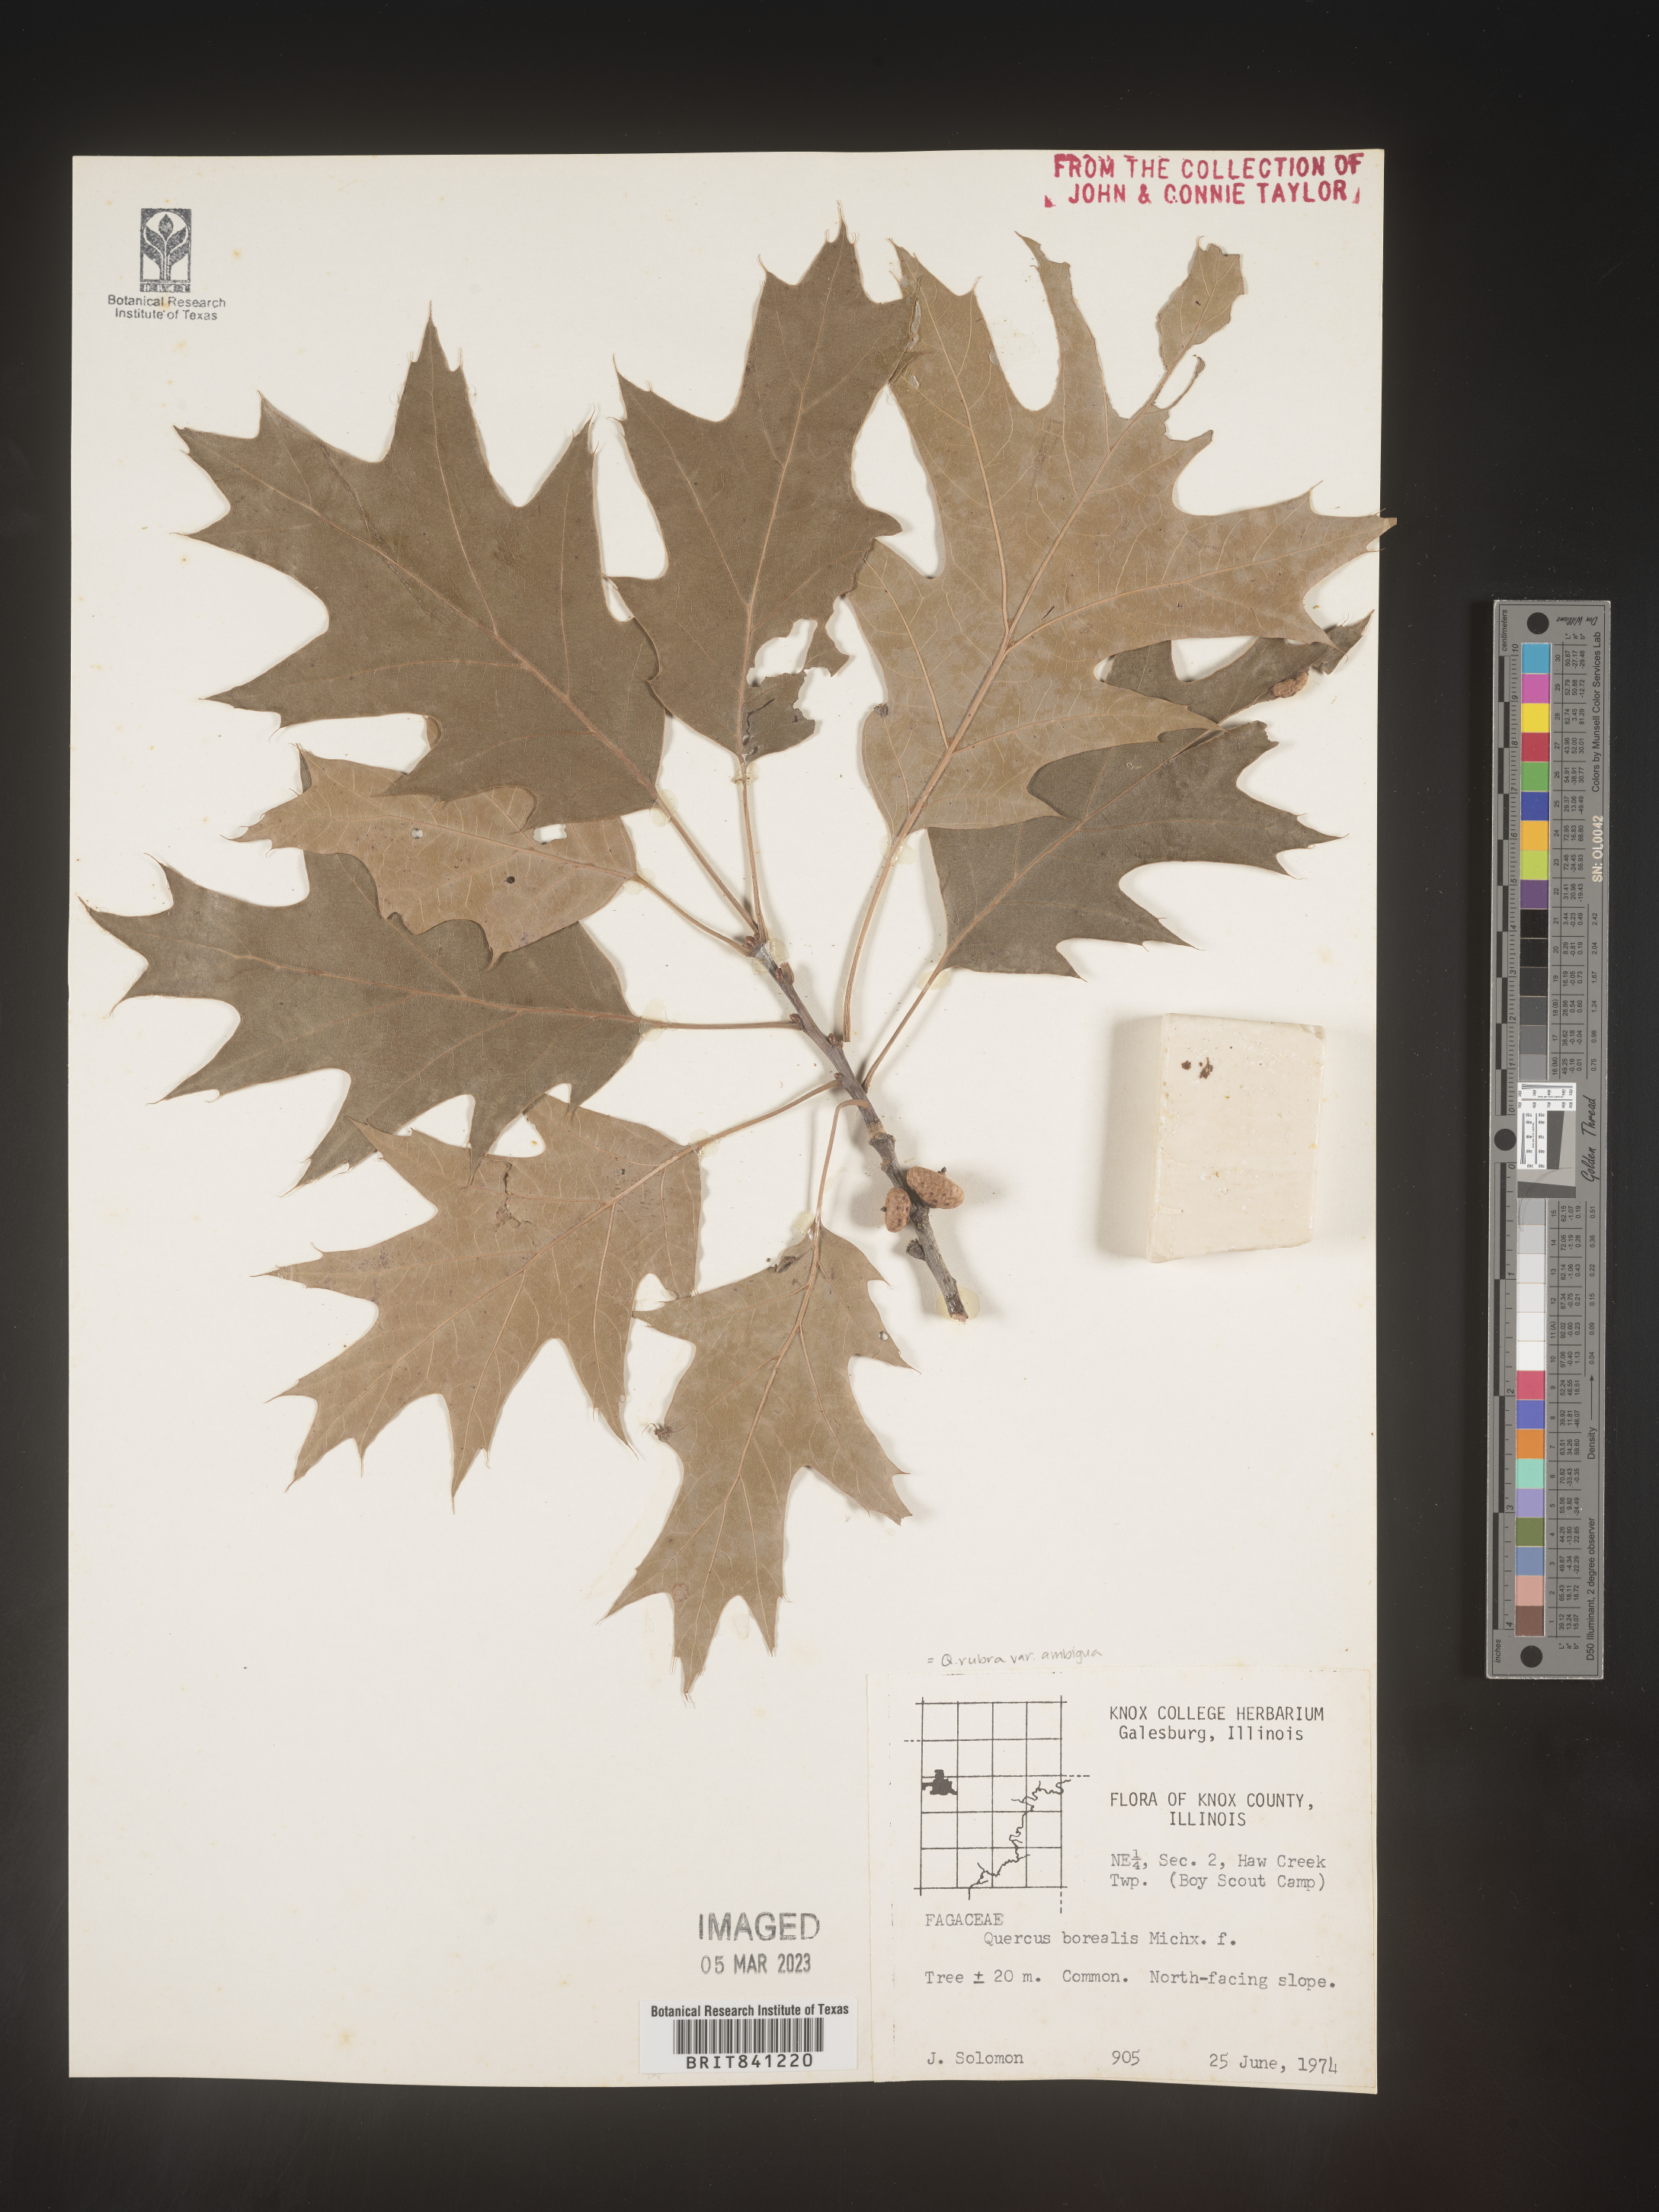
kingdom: Plantae
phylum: Tracheophyta
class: Magnoliopsida
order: Fagales
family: Fagaceae
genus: Quercus
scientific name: Quercus rubra
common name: Red oak
